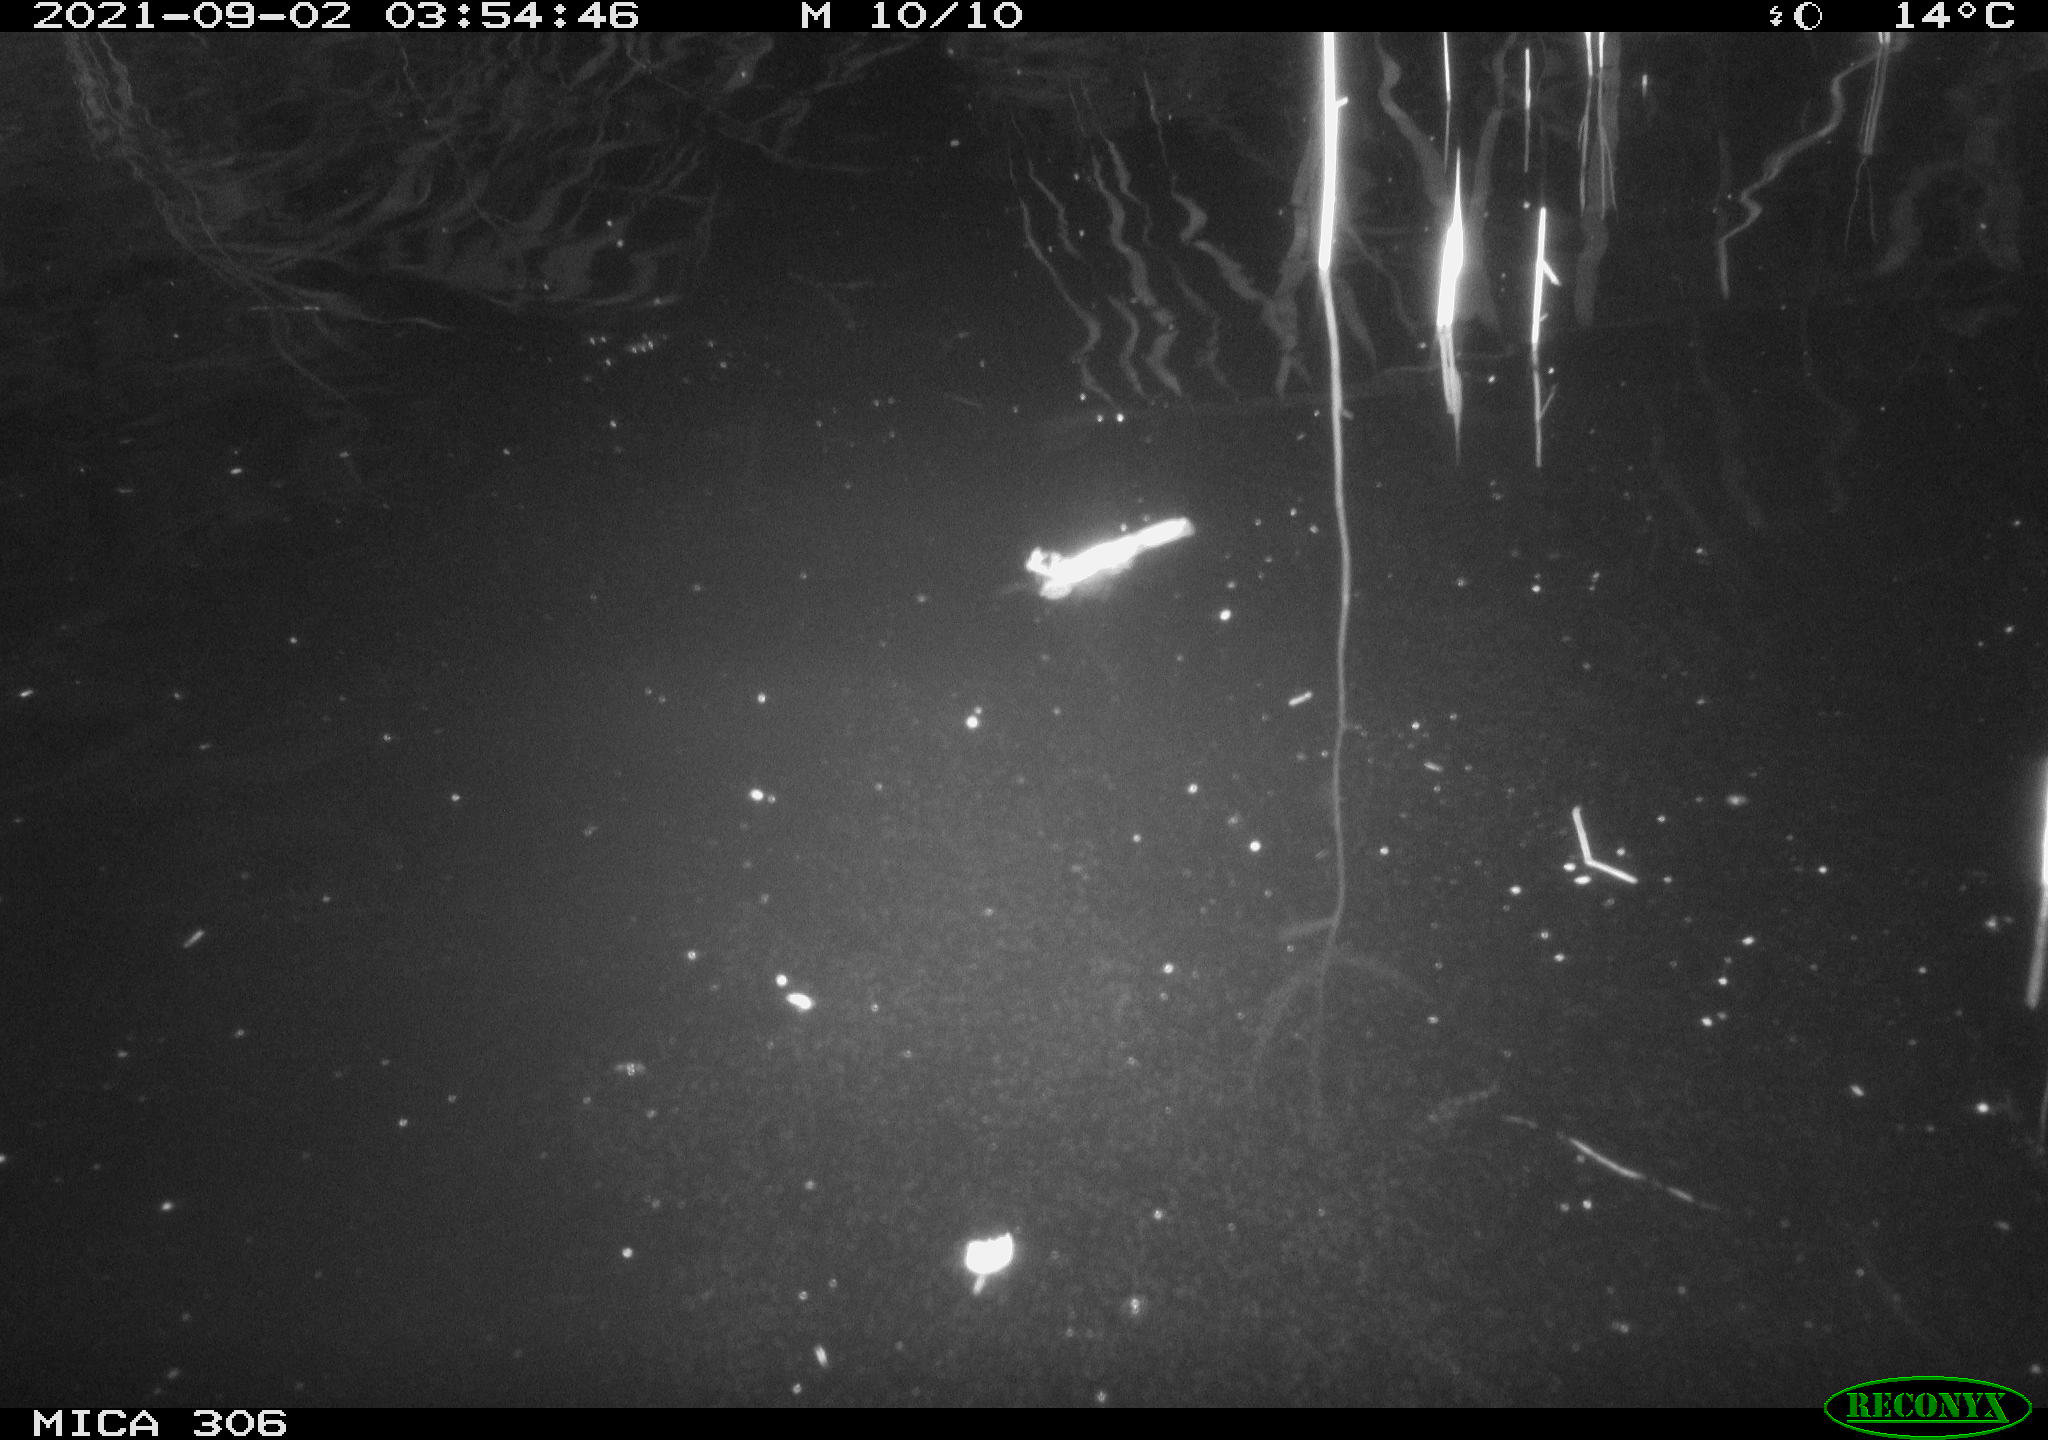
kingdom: Animalia
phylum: Chordata
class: Mammalia
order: Rodentia
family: Cricetidae
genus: Ondatra
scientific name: Ondatra zibethicus
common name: Muskrat
